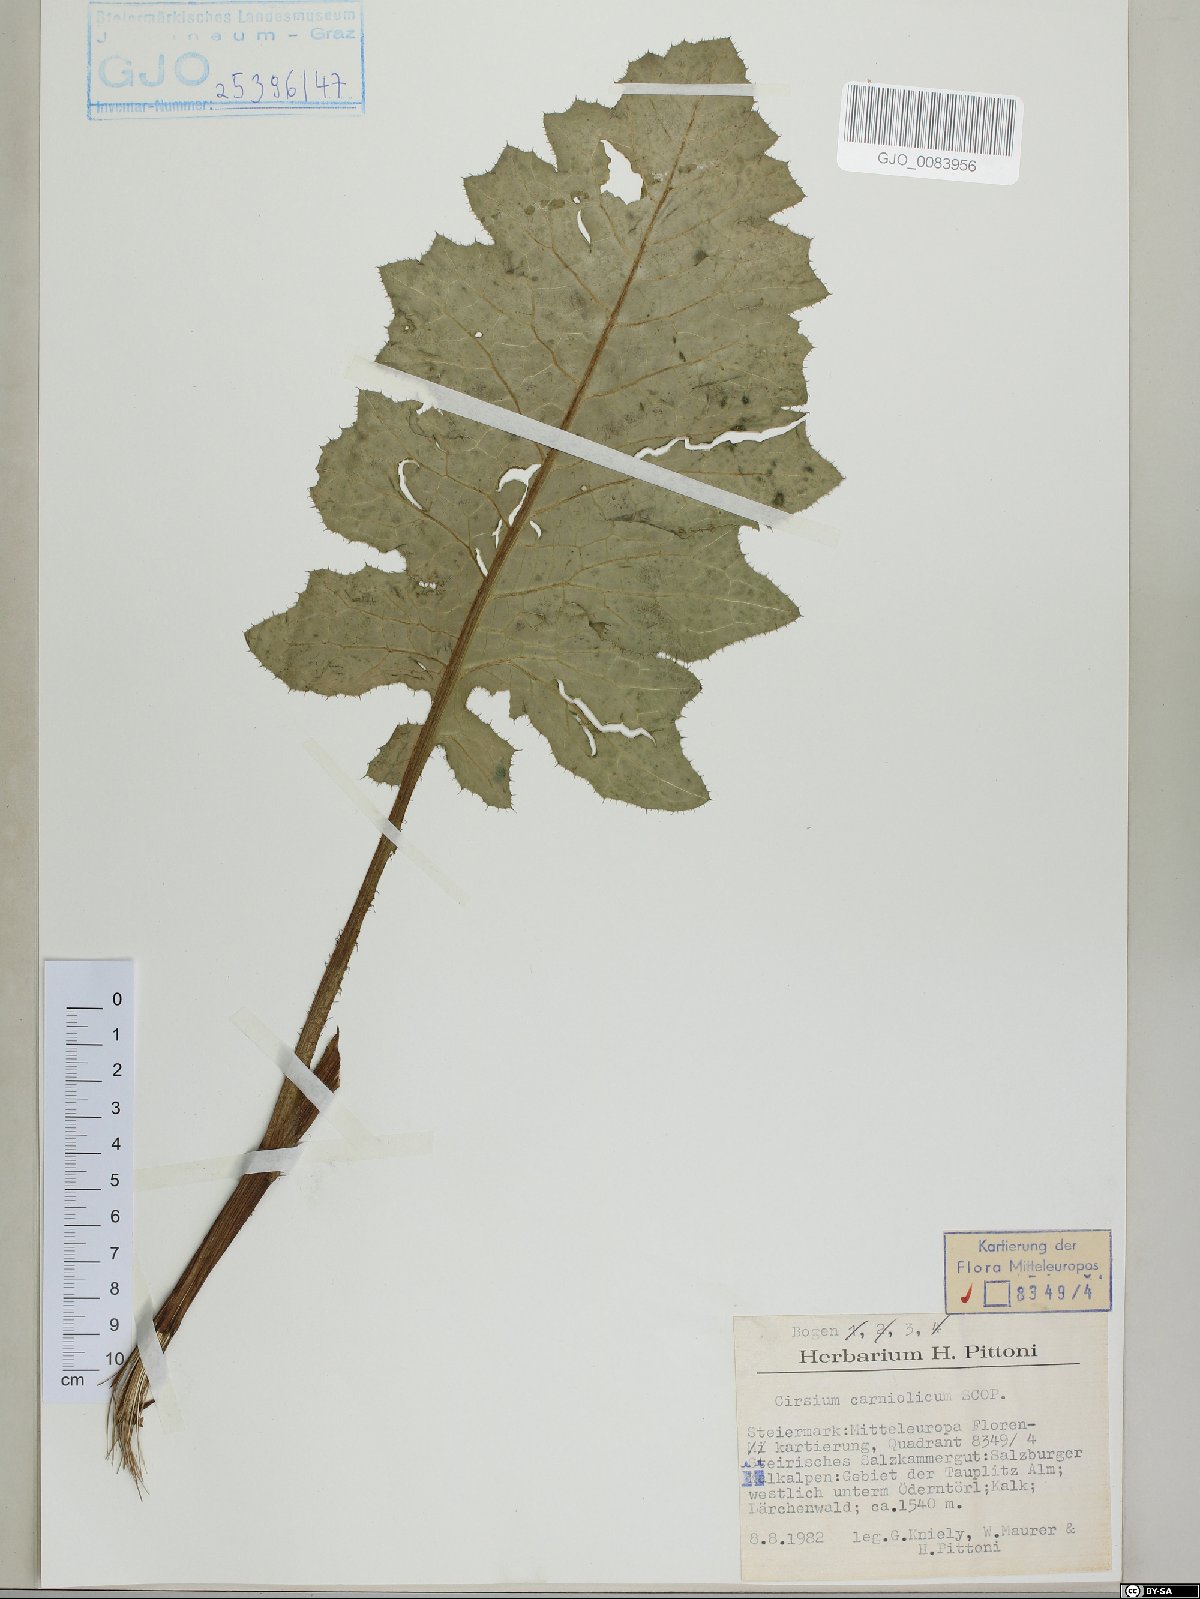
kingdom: Plantae
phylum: Tracheophyta
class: Magnoliopsida
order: Asterales
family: Asteraceae
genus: Cirsium
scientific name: Cirsium carniolicum
